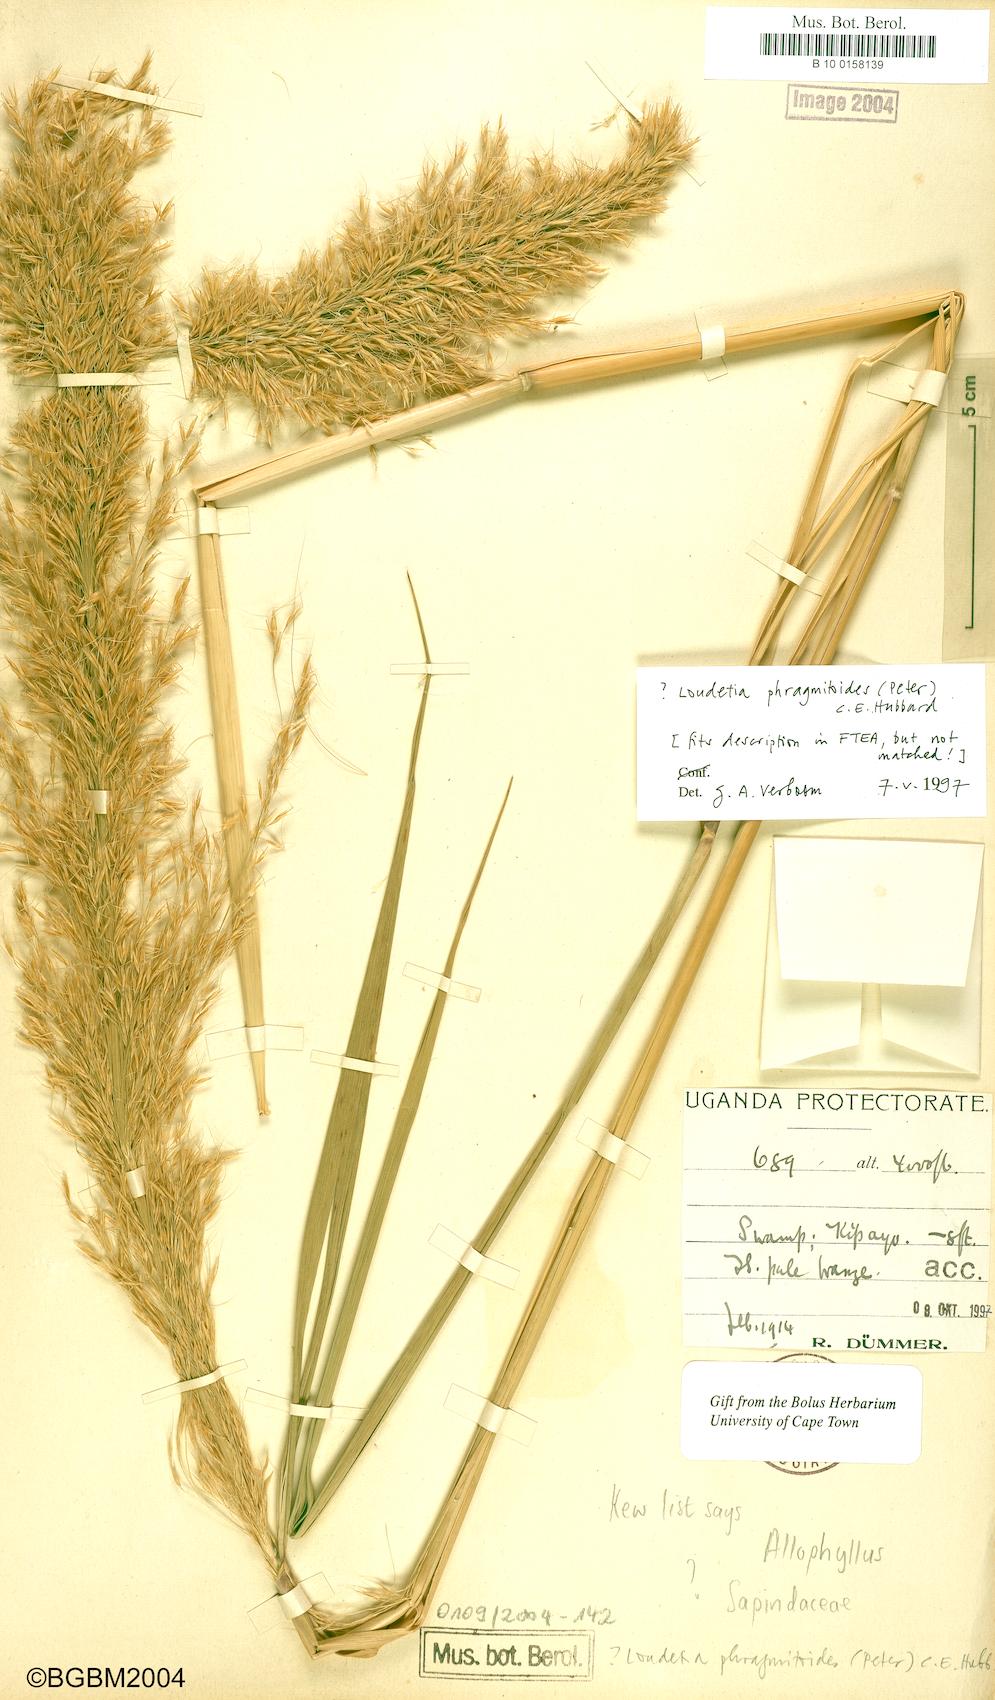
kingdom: Plantae
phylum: Tracheophyta
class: Liliopsida
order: Poales
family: Poaceae
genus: Loudetia
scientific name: Loudetia phragmitoides
